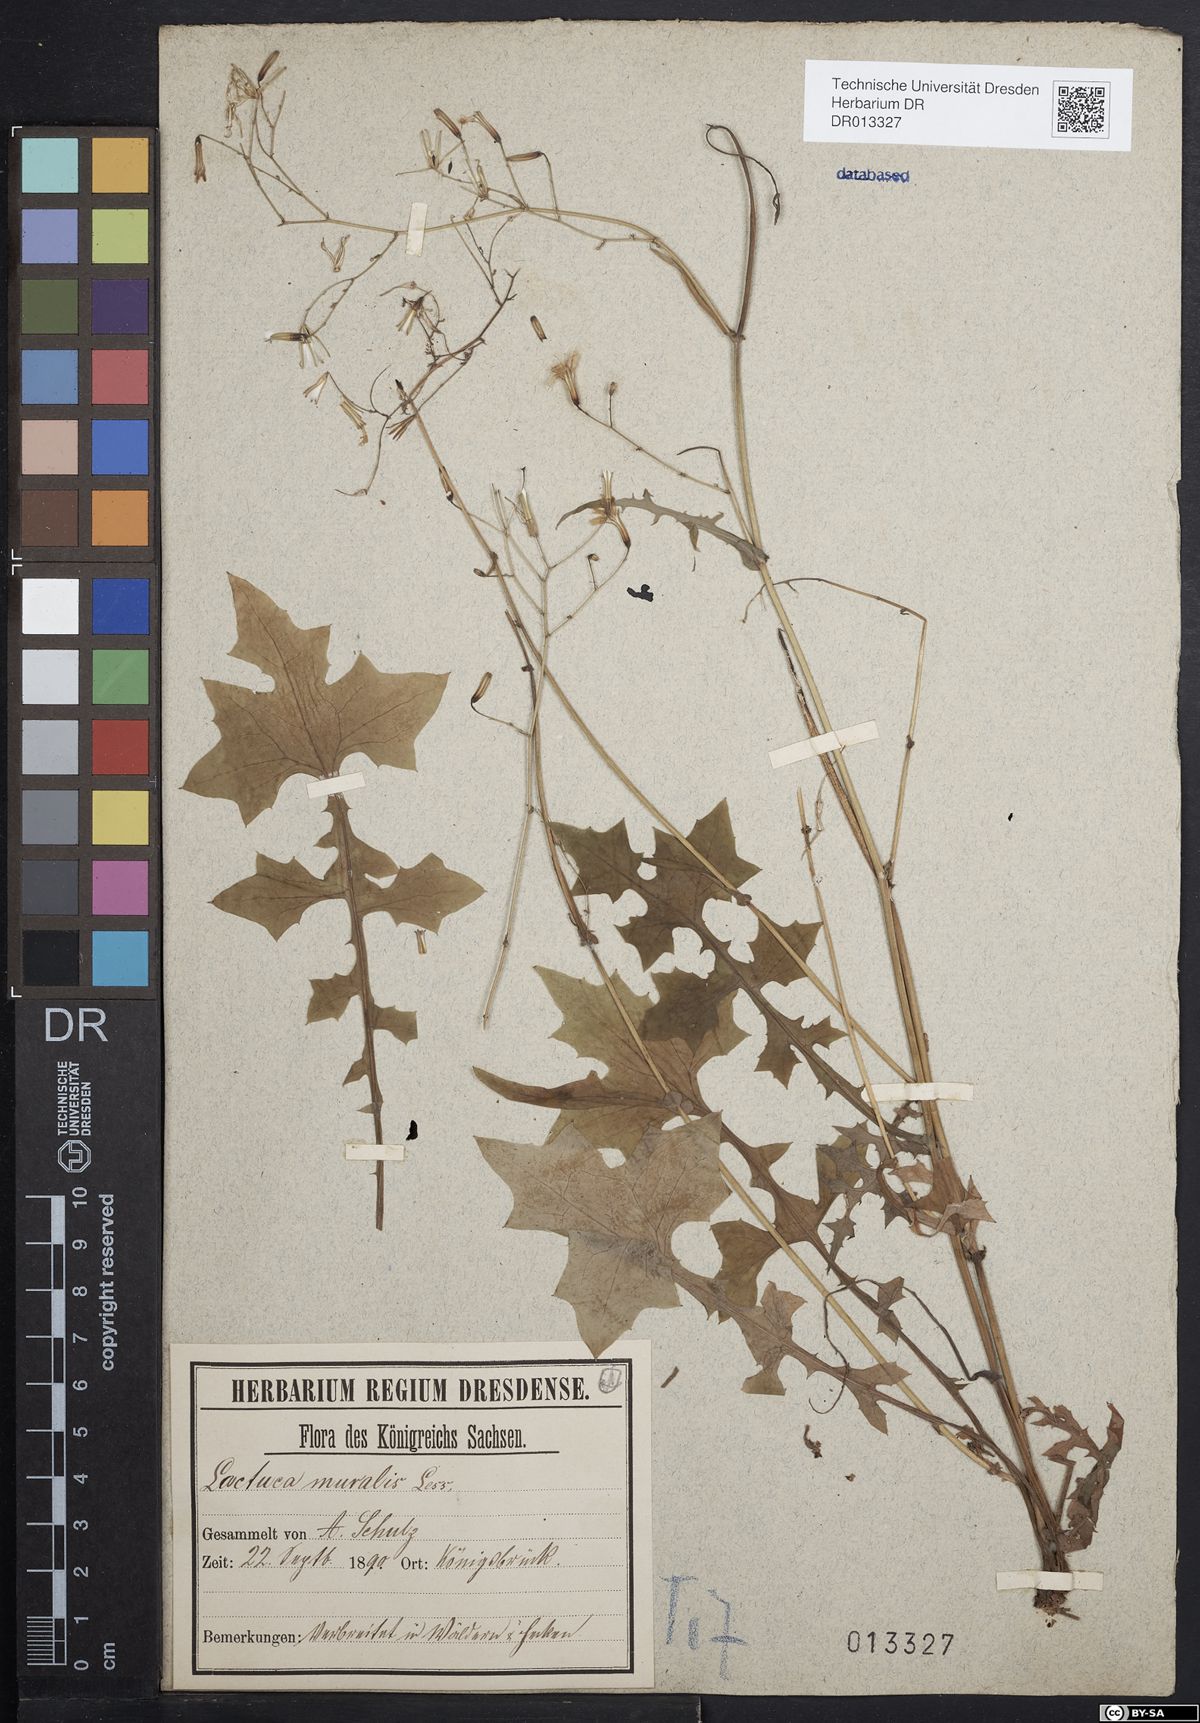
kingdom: Plantae
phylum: Tracheophyta
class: Magnoliopsida
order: Asterales
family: Asteraceae
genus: Mycelis
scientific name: Mycelis muralis
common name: Wall lettuce
